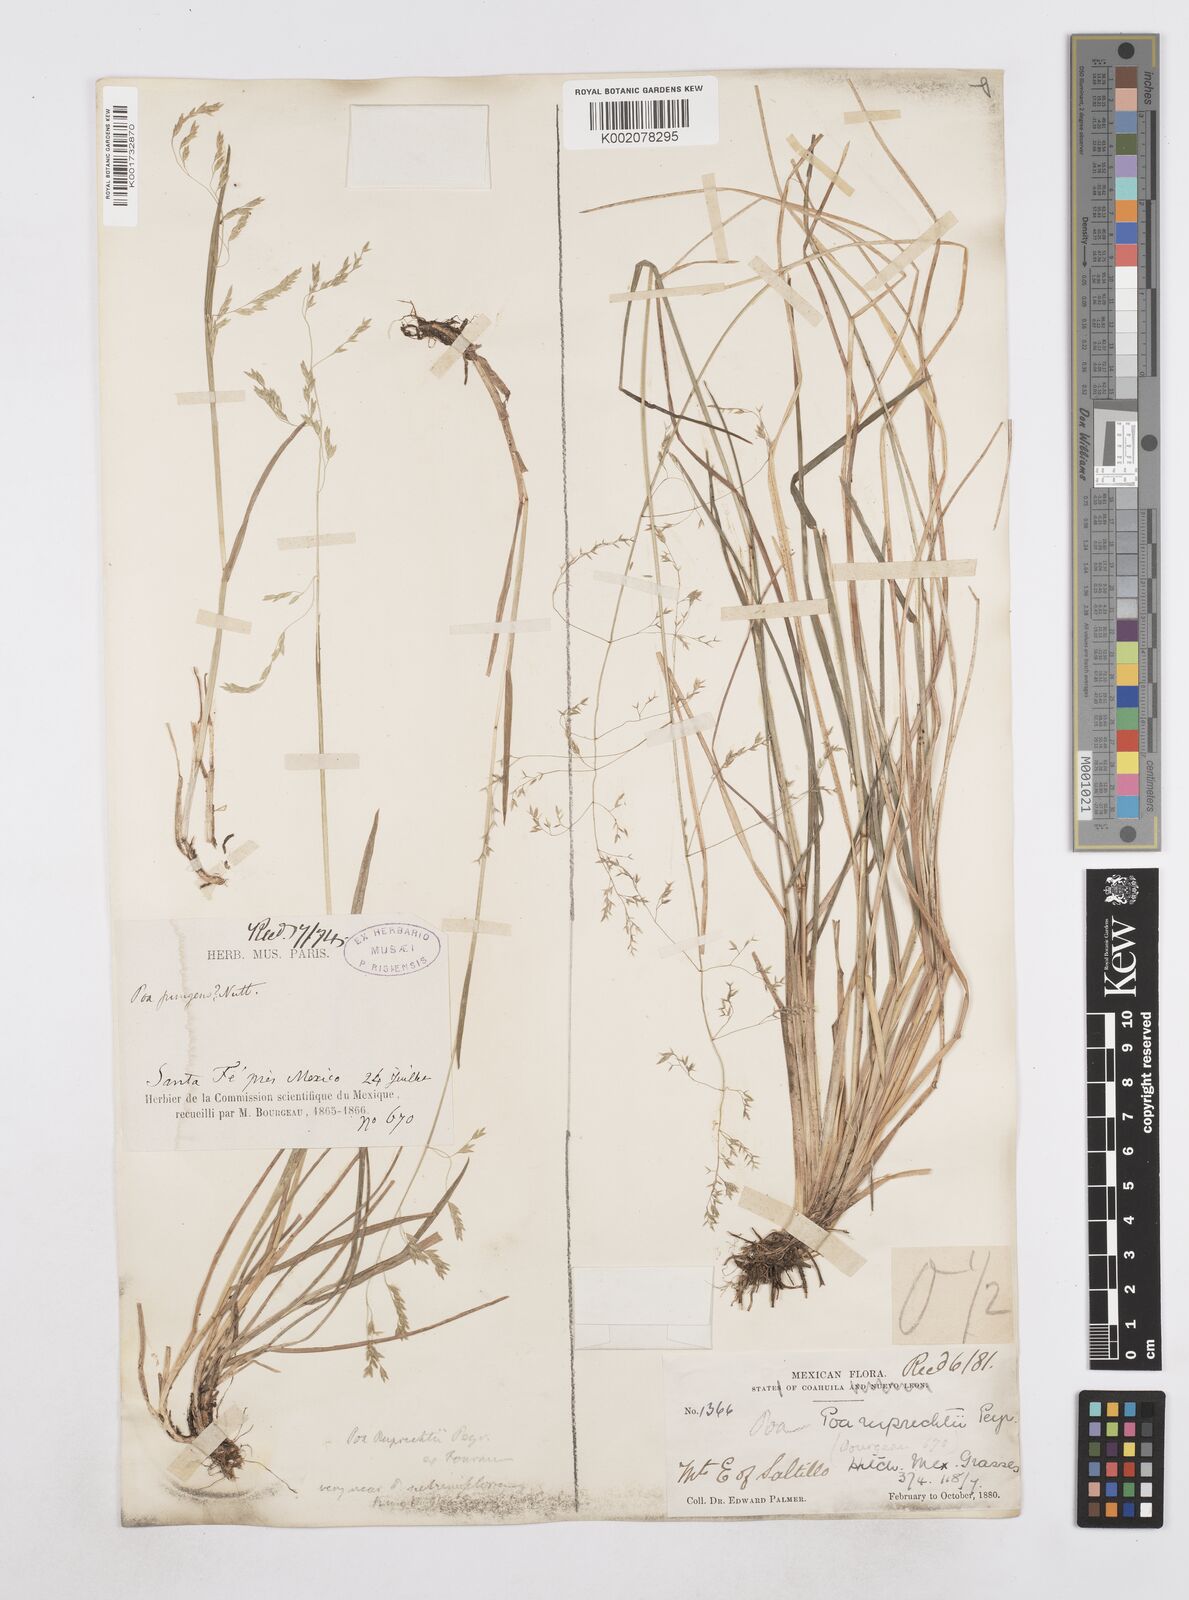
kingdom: Plantae
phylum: Tracheophyta
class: Liliopsida
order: Poales
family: Poaceae
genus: Poa
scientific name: Poa ruprechtii
